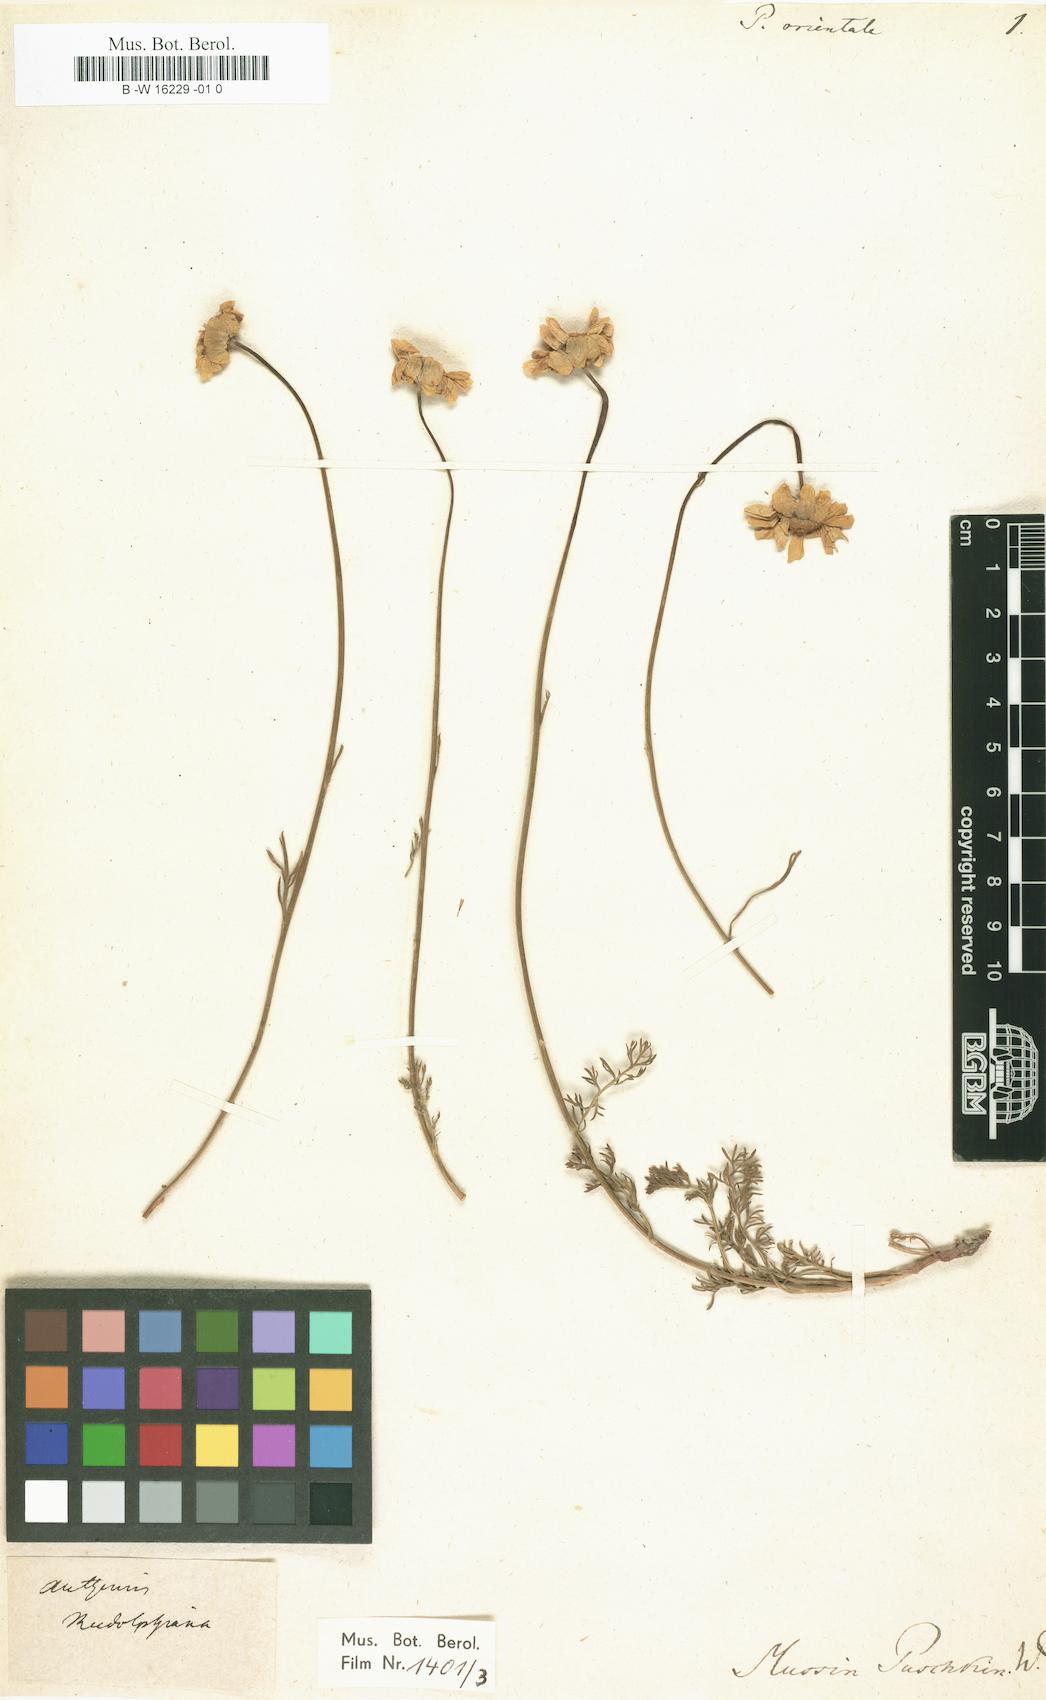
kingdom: Plantae
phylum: Tracheophyta
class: Magnoliopsida
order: Asterales
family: Asteraceae
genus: Archanthemis
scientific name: Archanthemis marschalliana
